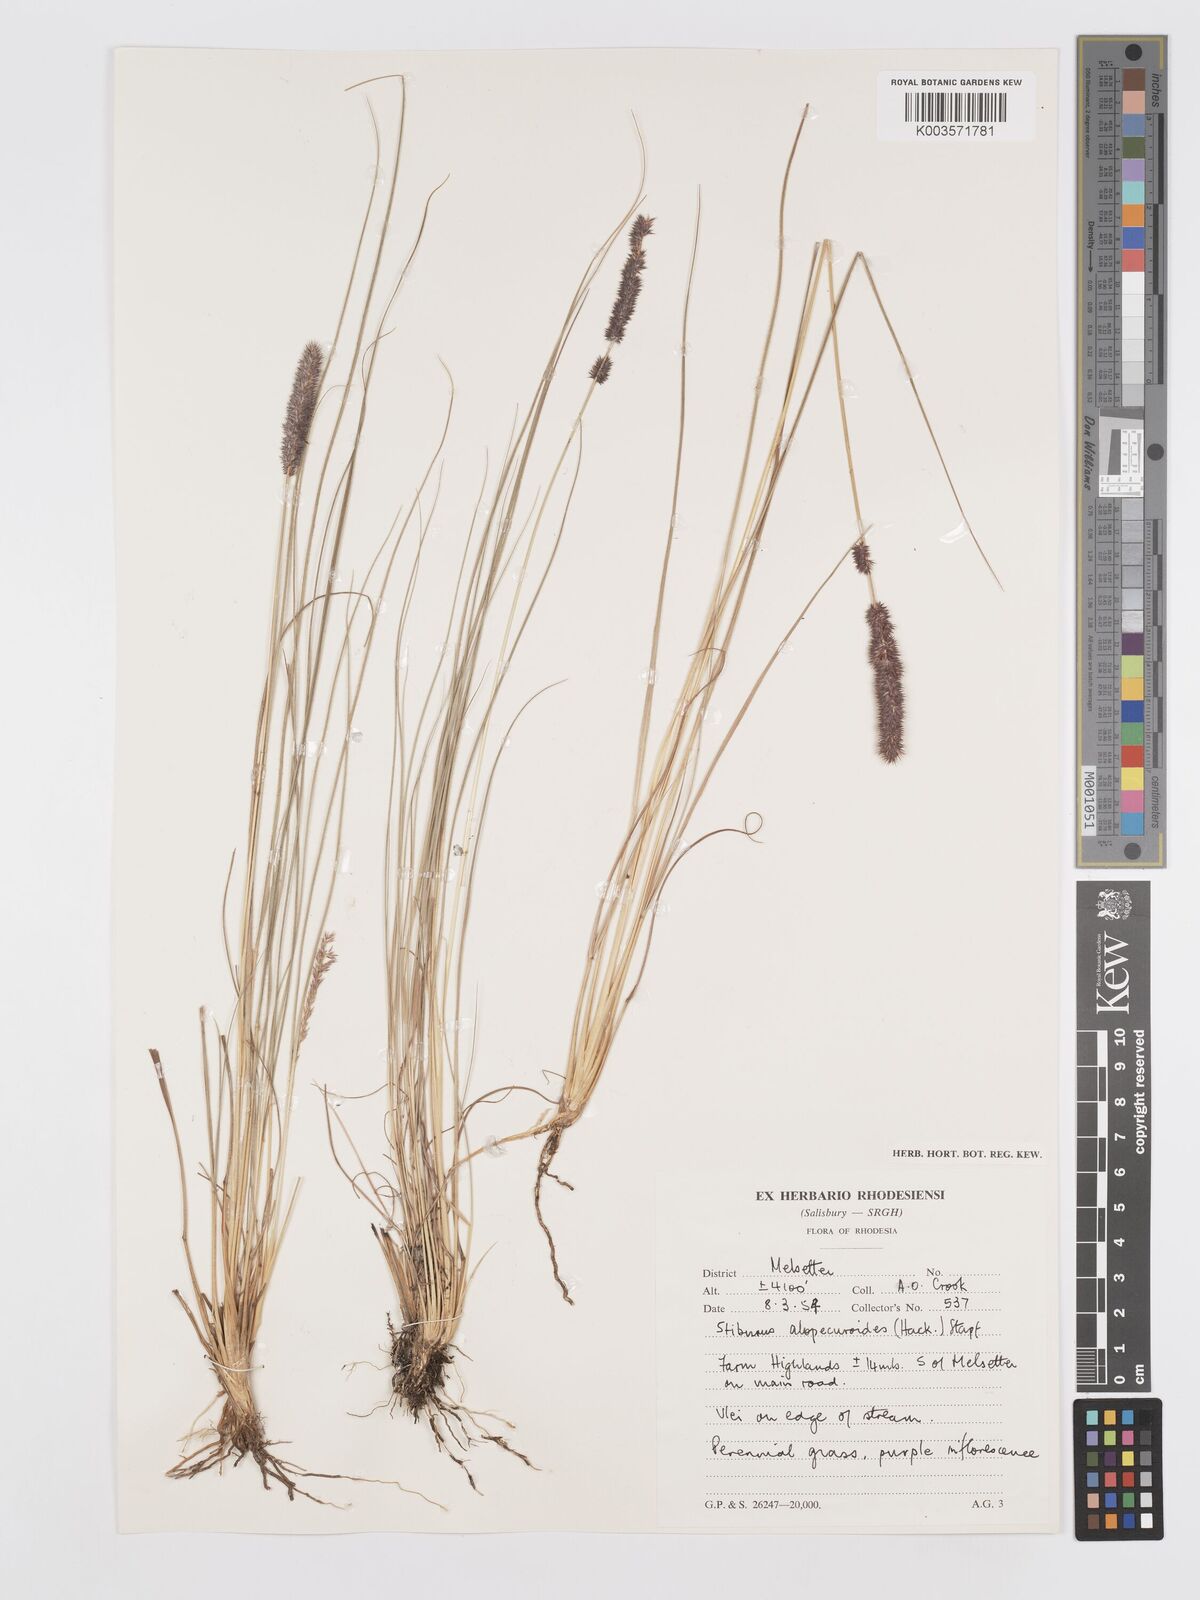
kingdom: Plantae
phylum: Tracheophyta
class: Liliopsida
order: Poales
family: Poaceae
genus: Stiburus
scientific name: Stiburus alopecuroides
